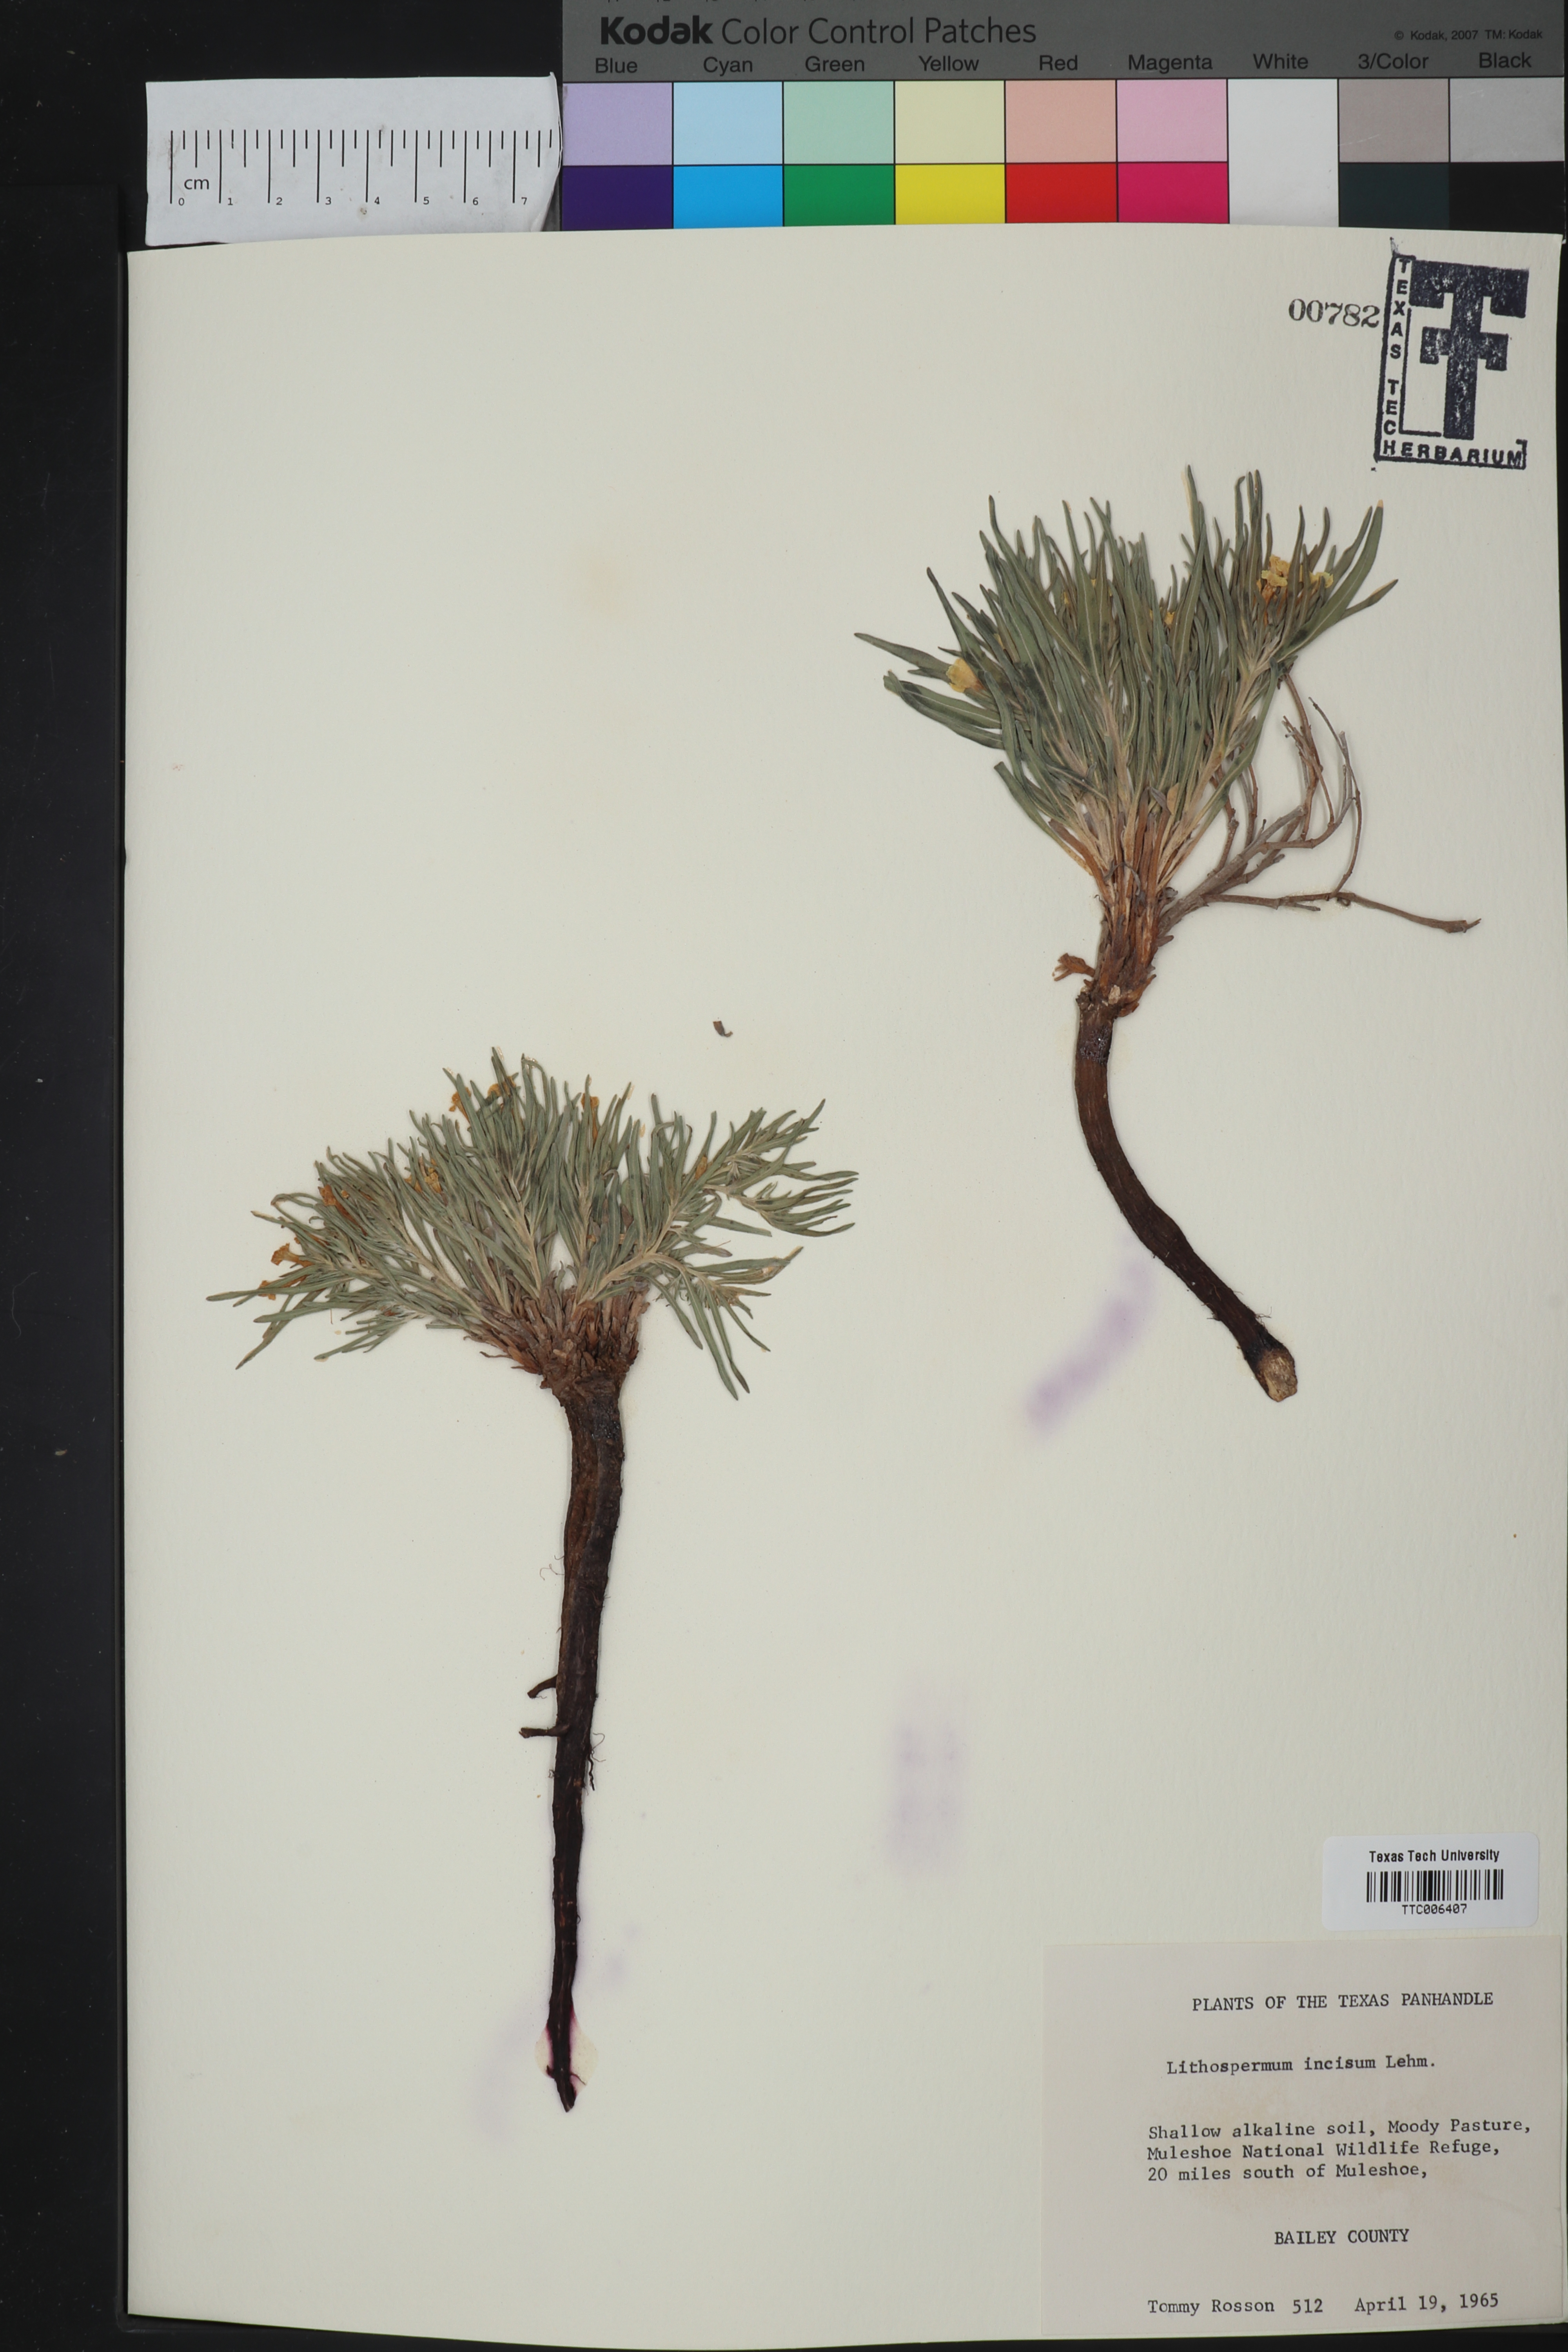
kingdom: Plantae
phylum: Tracheophyta
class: Magnoliopsida
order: Boraginales
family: Boraginaceae
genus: Lithospermum
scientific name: Lithospermum incisum
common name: Fringed gromwell
